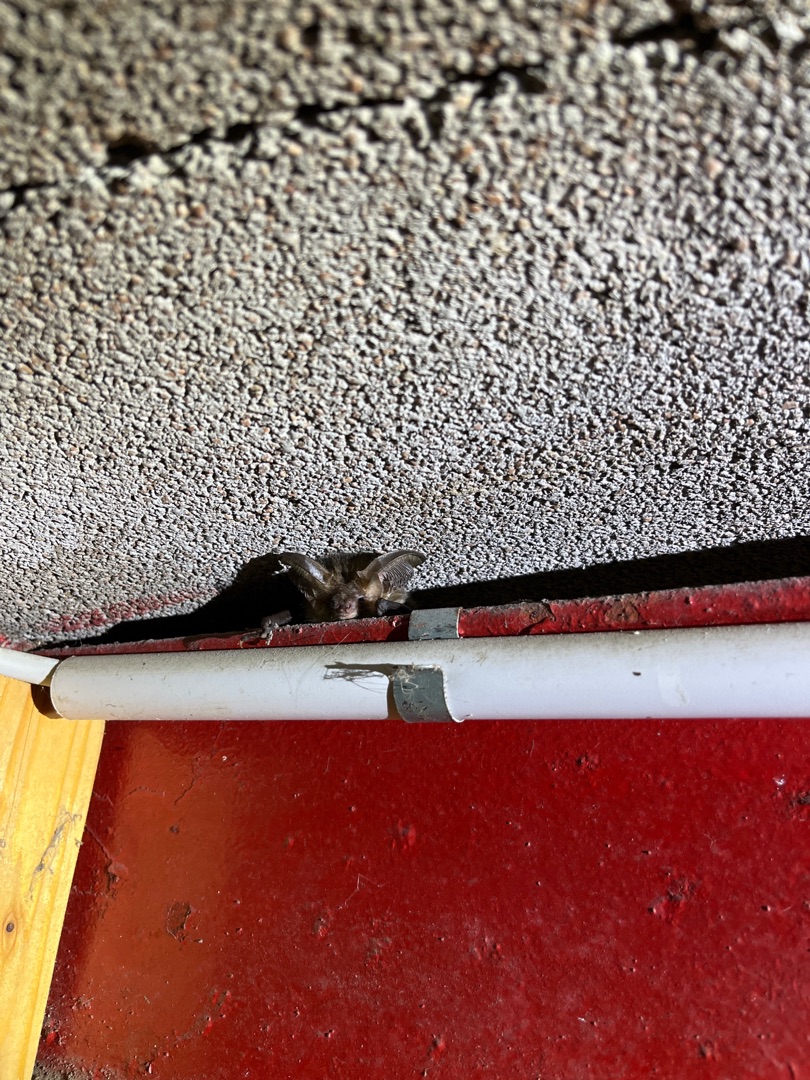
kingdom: Animalia
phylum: Chordata
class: Mammalia
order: Chiroptera
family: Vespertilionidae
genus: Plecotus
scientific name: Plecotus auritus
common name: Brun langøre
